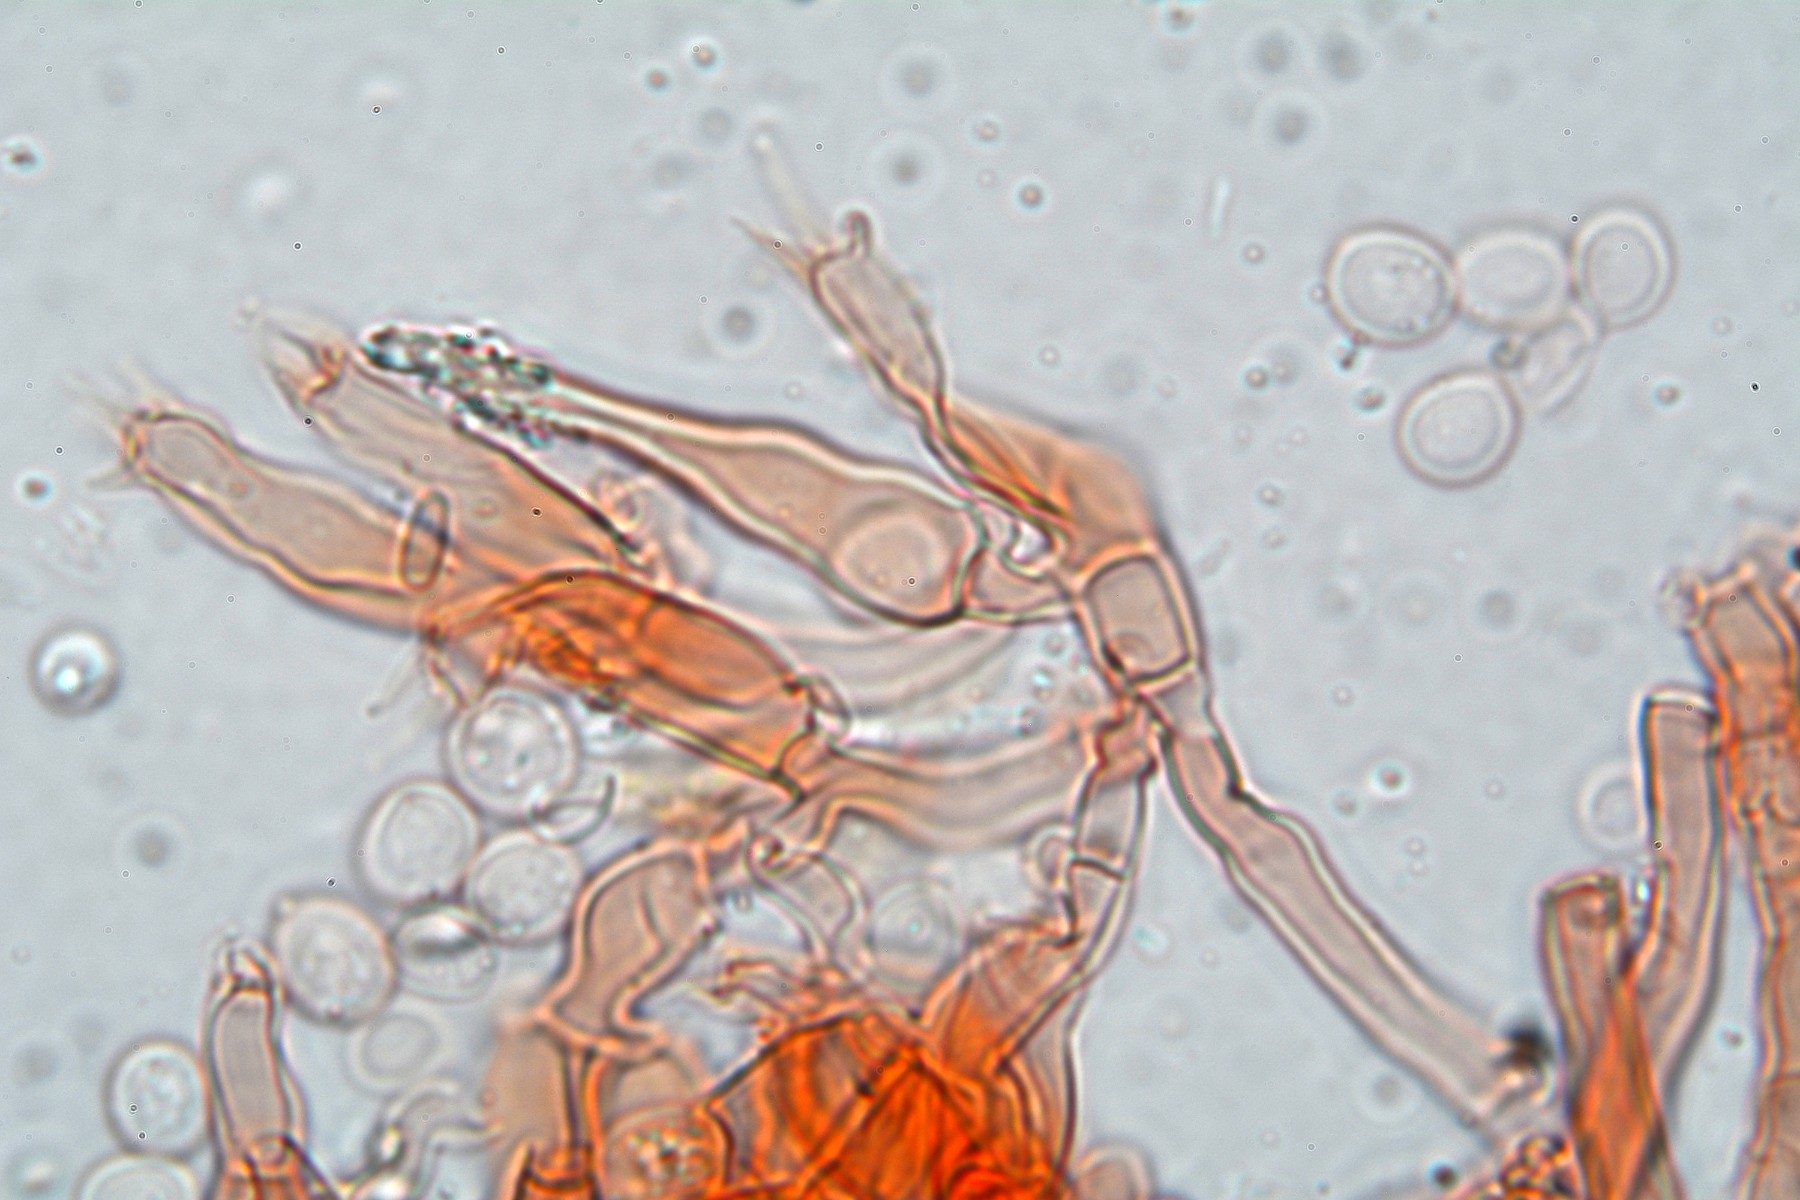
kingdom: Fungi
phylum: Basidiomycota
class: Agaricomycetes
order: Hymenochaetales
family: Hyphodontiaceae
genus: Hyphodontia
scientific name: Hyphodontia alutaria
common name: flaskerenser-nålehinde
